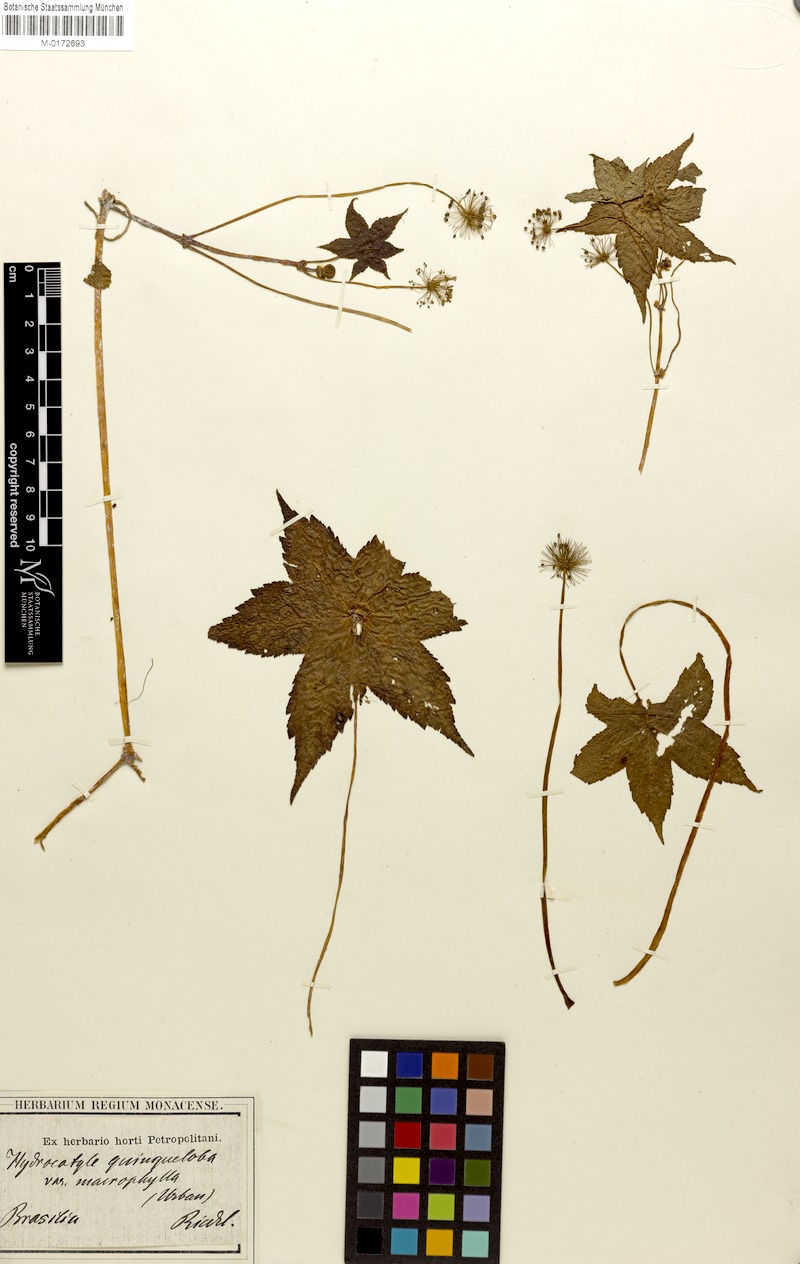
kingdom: Plantae
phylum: Tracheophyta
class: Magnoliopsida
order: Apiales
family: Araliaceae
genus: Hydrocotyle
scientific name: Hydrocotyle quinqueloba
